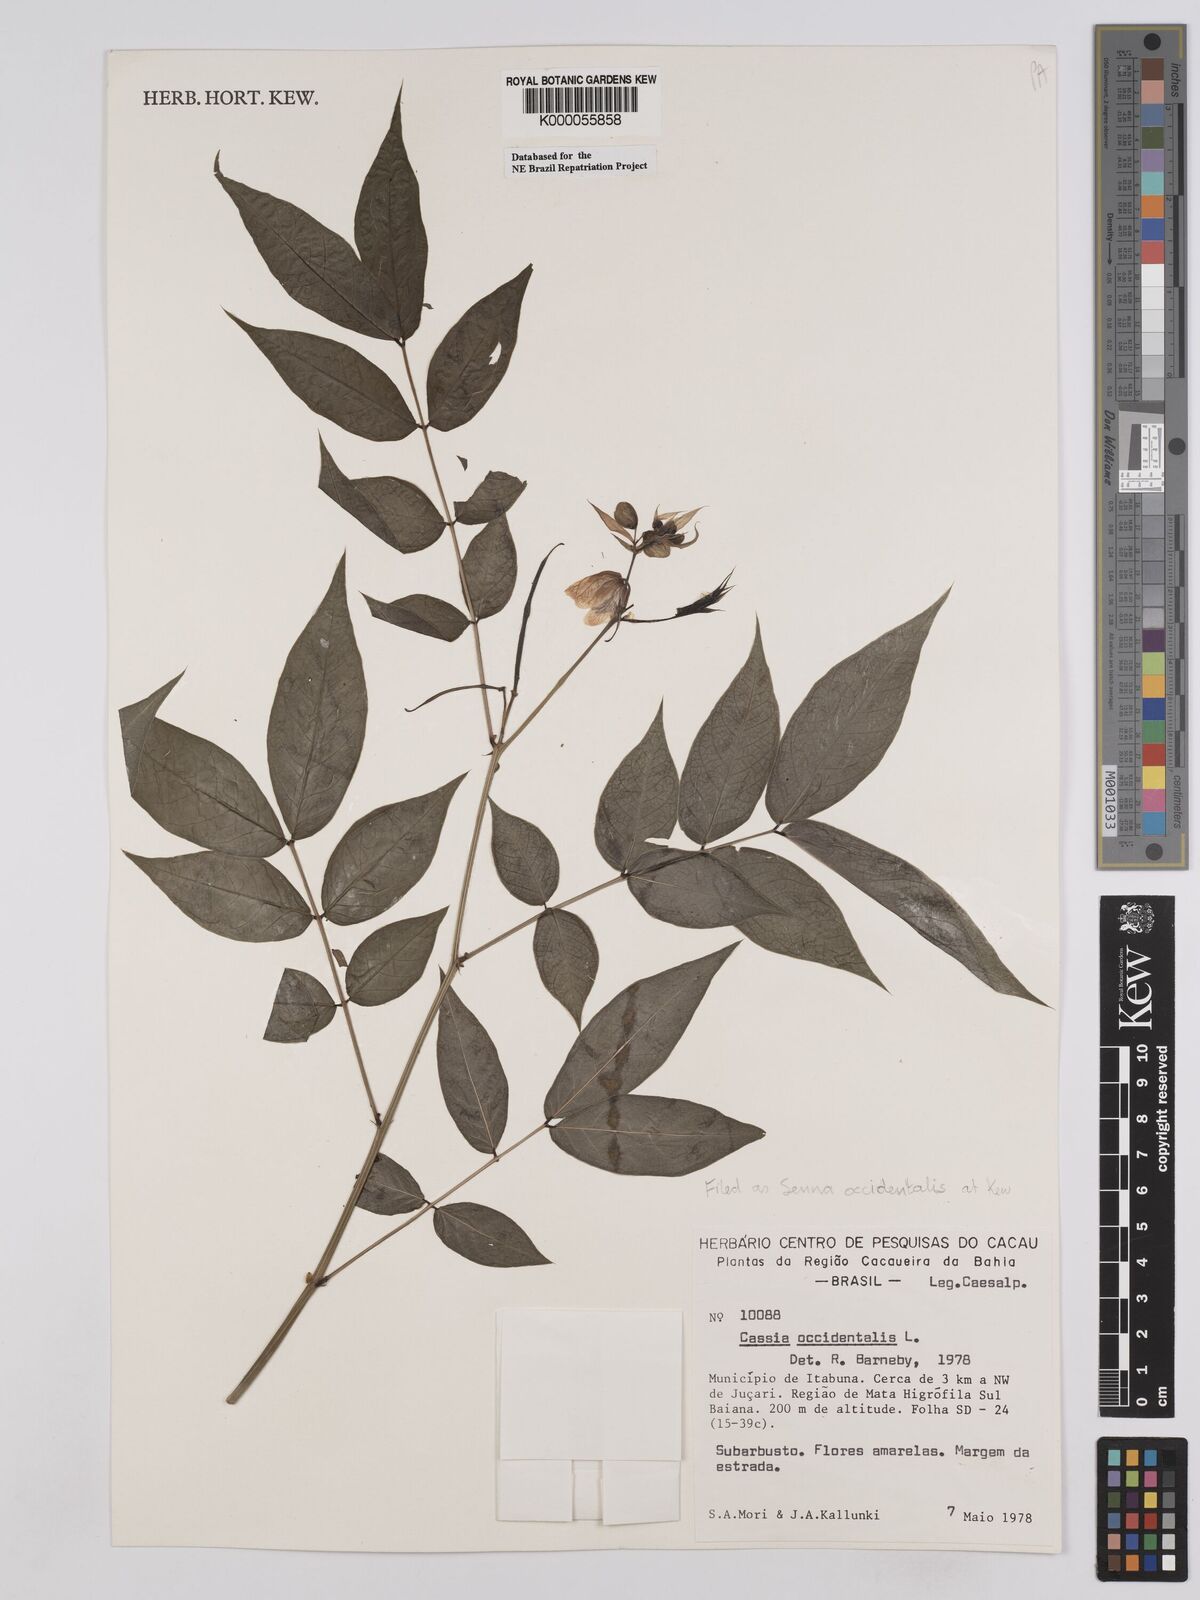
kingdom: Plantae
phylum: Tracheophyta
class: Magnoliopsida
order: Fabales
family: Fabaceae
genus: Senna
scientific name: Senna occidentalis
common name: Septicweed
